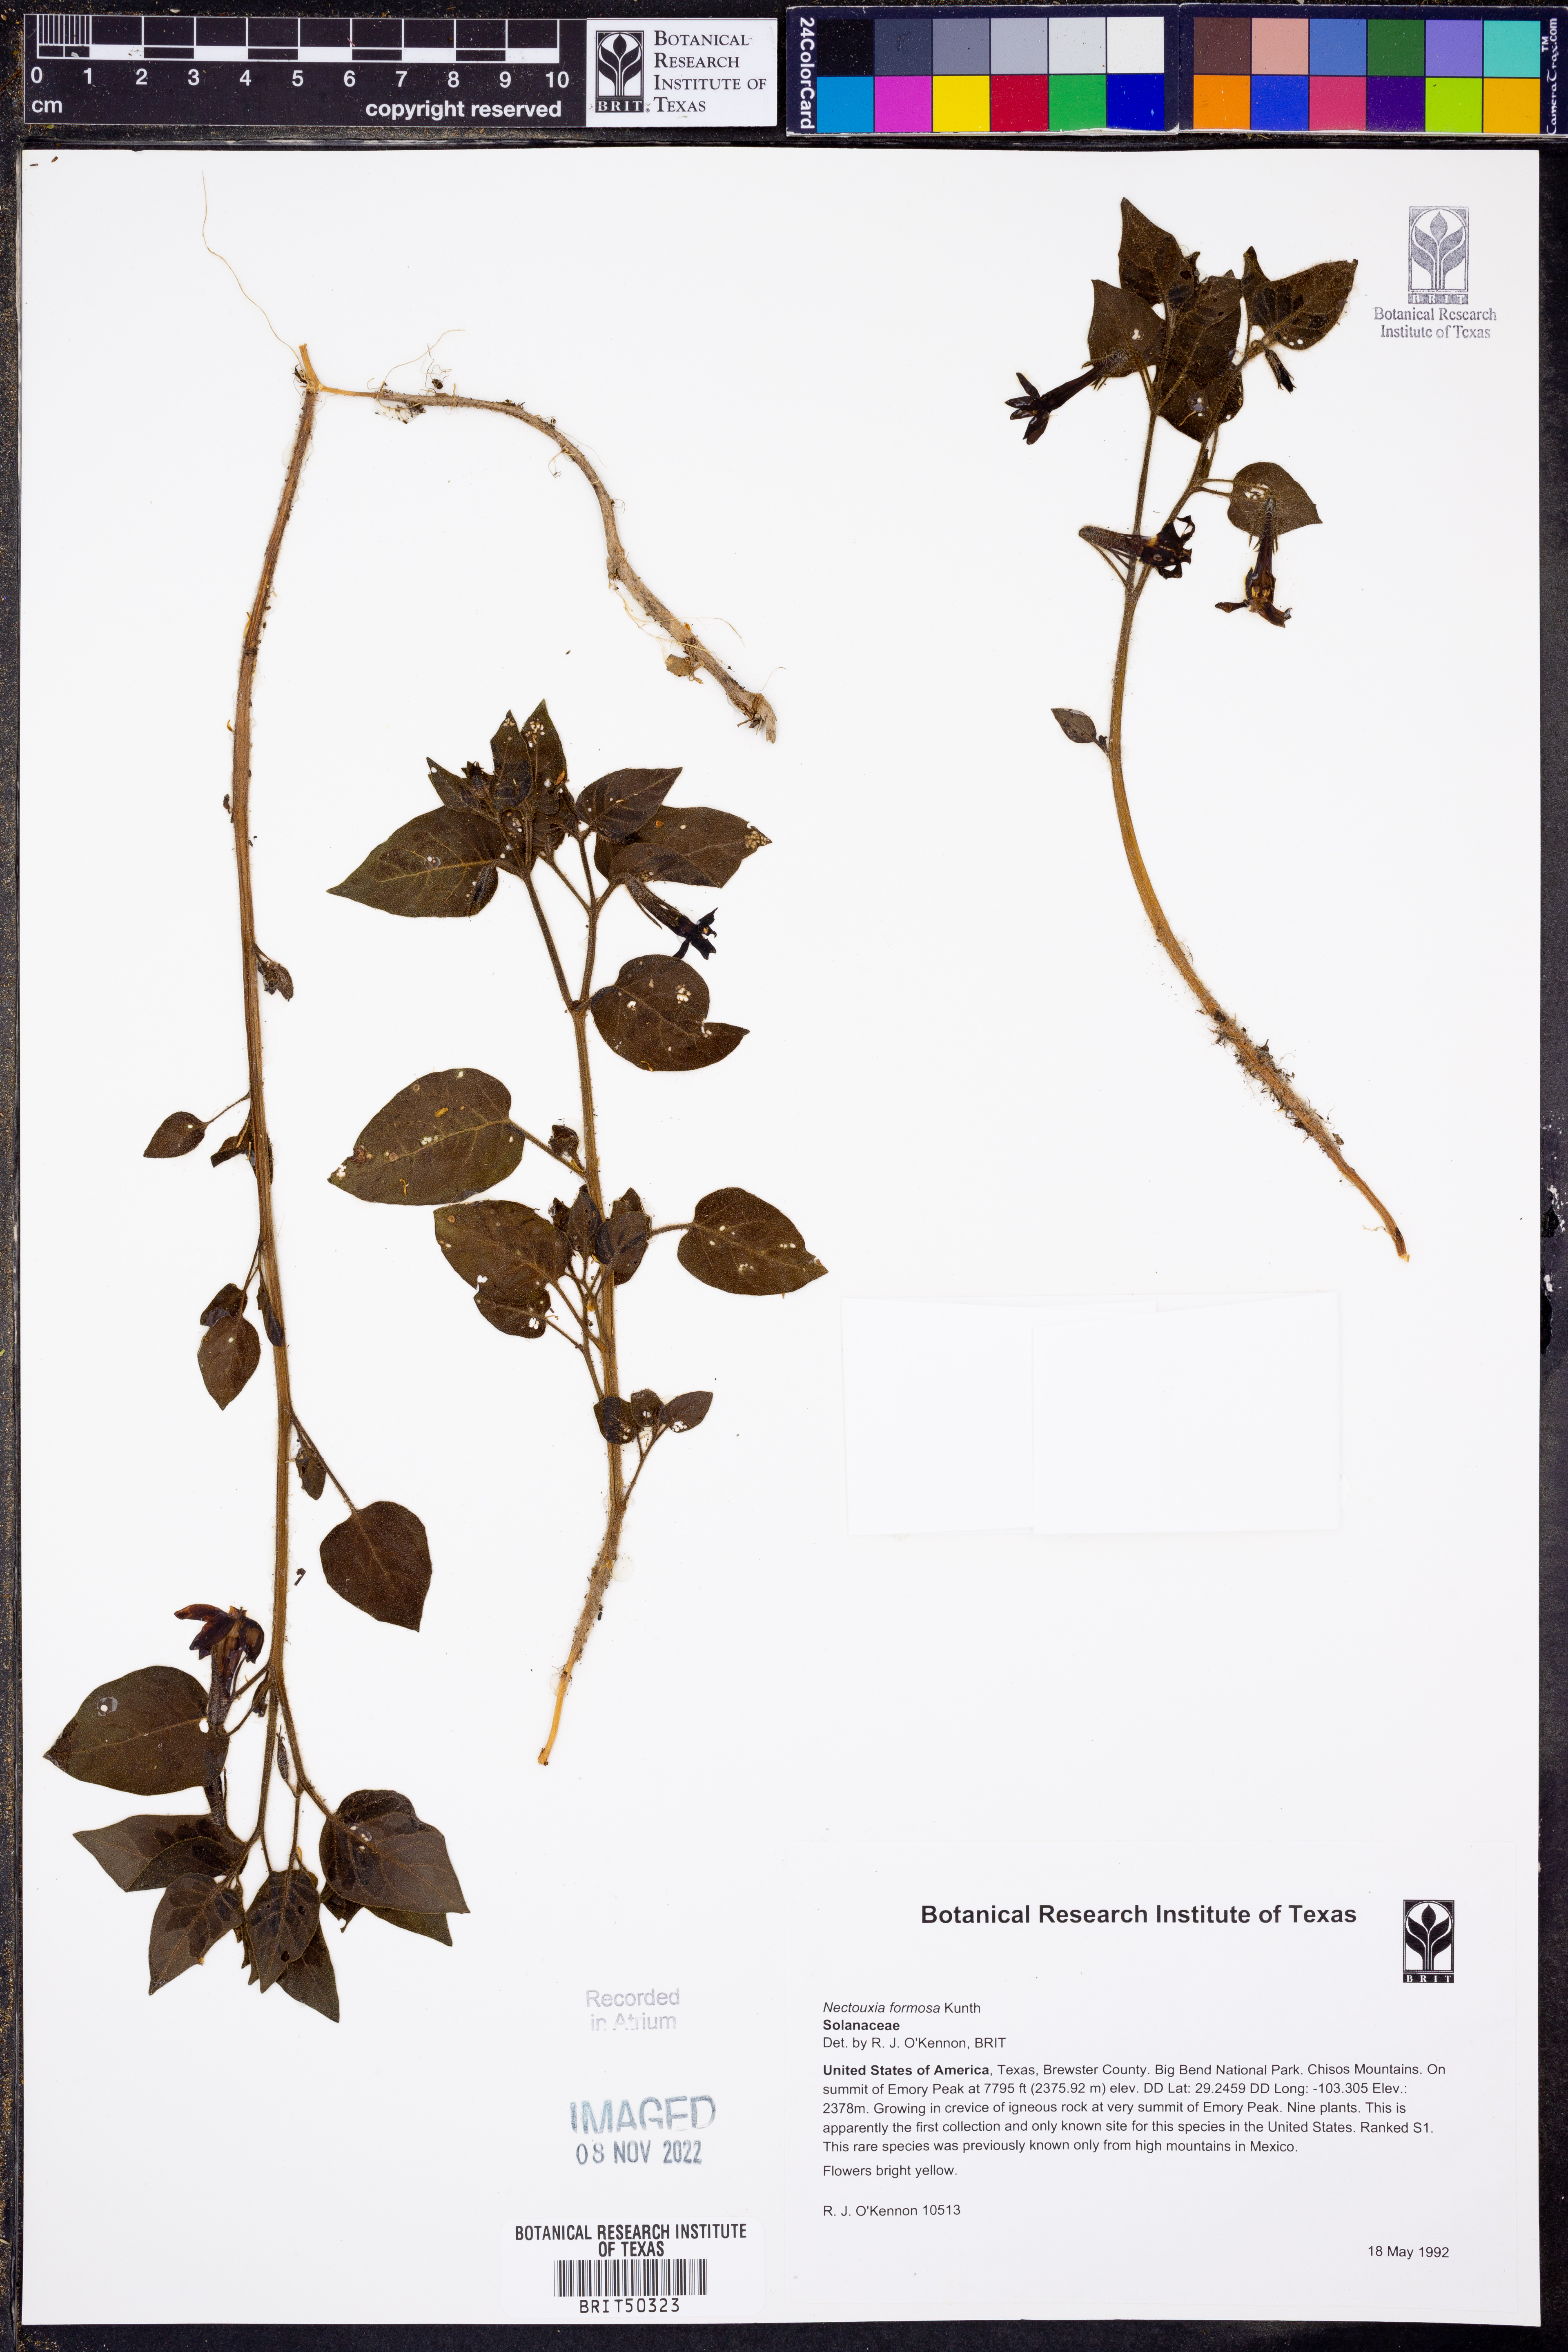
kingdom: Plantae
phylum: Tracheophyta
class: Magnoliopsida
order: Solanales
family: Solanaceae
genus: Nectouxia
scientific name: Nectouxia formosa
